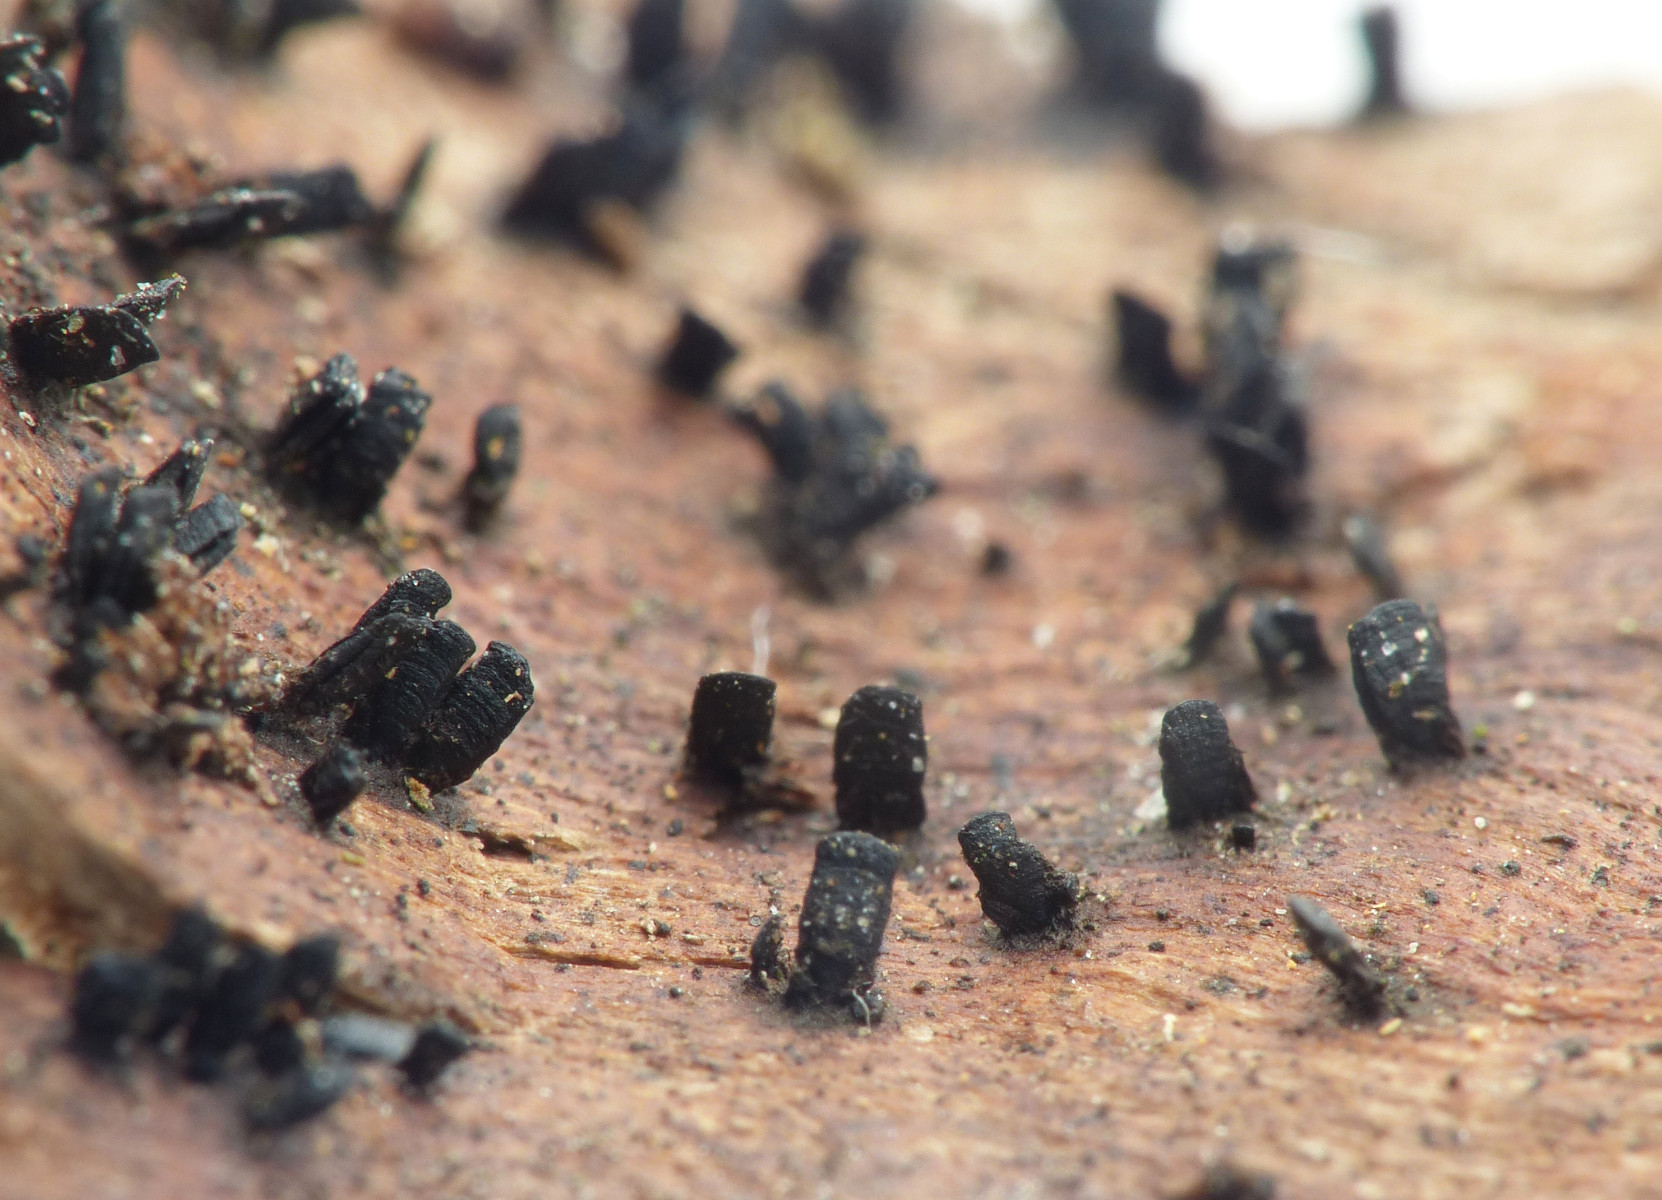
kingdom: Fungi
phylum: Ascomycota
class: Eurotiomycetes
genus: Glyphium
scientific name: Glyphium elatum
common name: kuløkse
